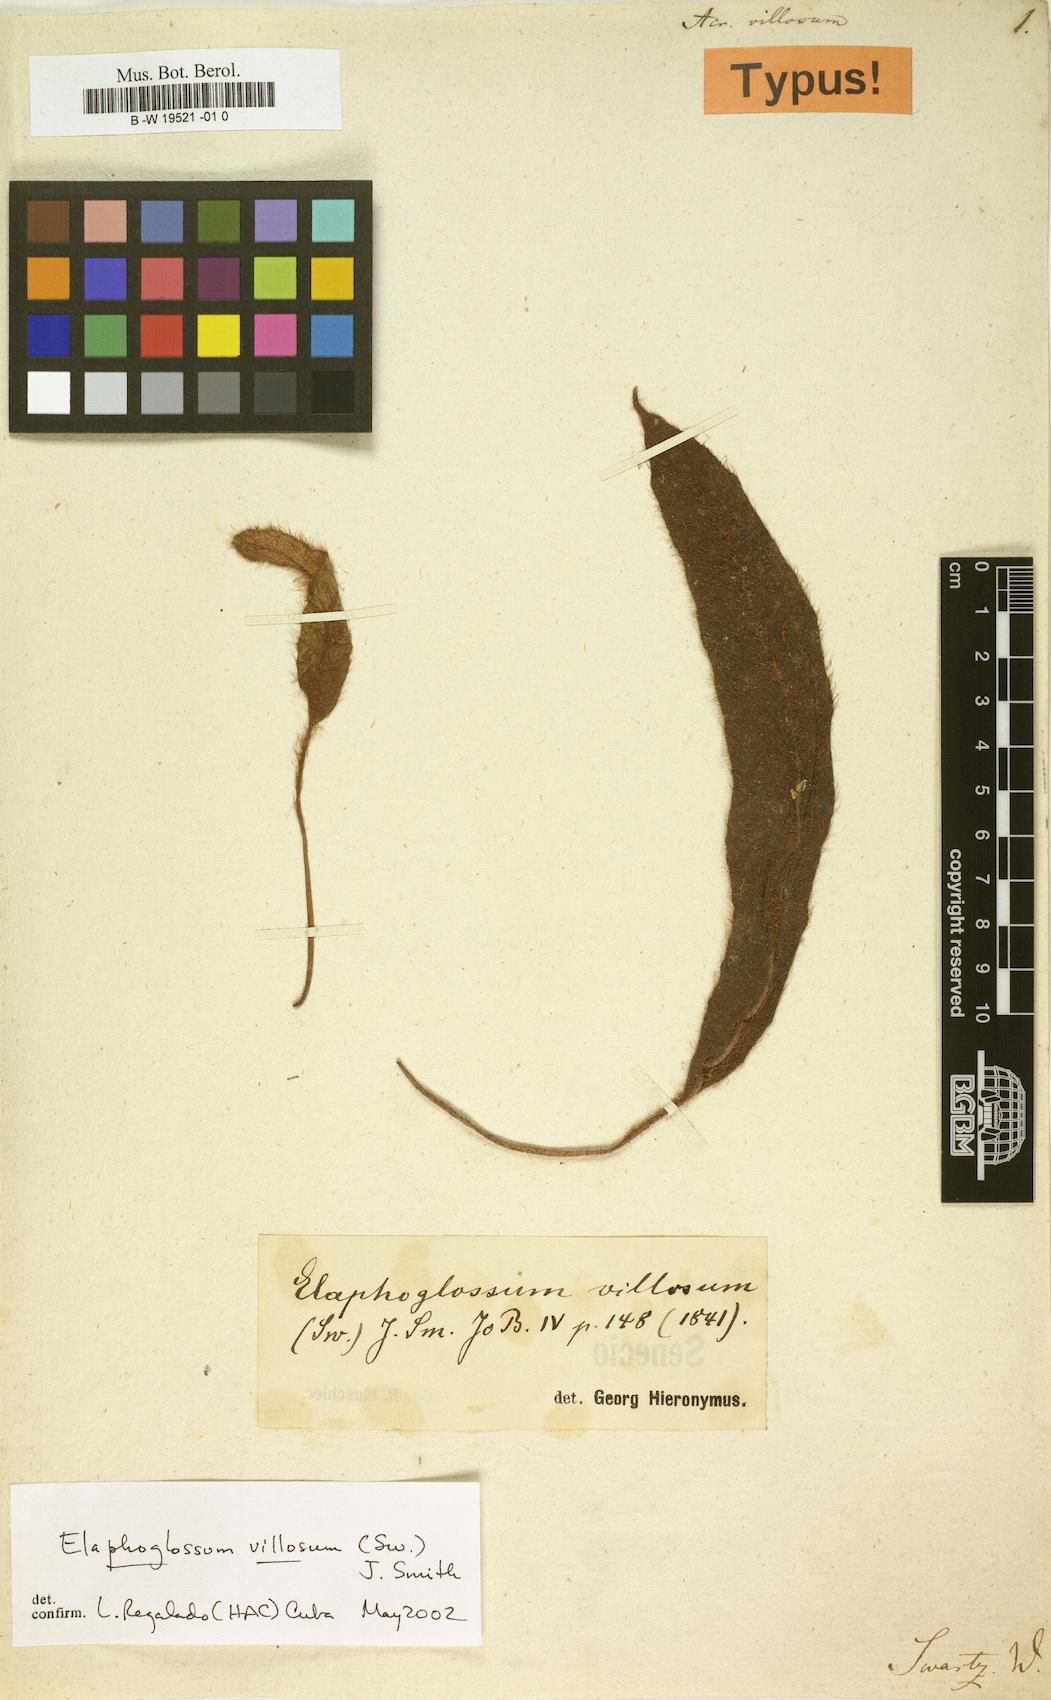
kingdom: Plantae
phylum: Tracheophyta
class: Polypodiopsida
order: Polypodiales
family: Dryopteridaceae
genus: Elaphoglossum
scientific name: Elaphoglossum moritzianum
